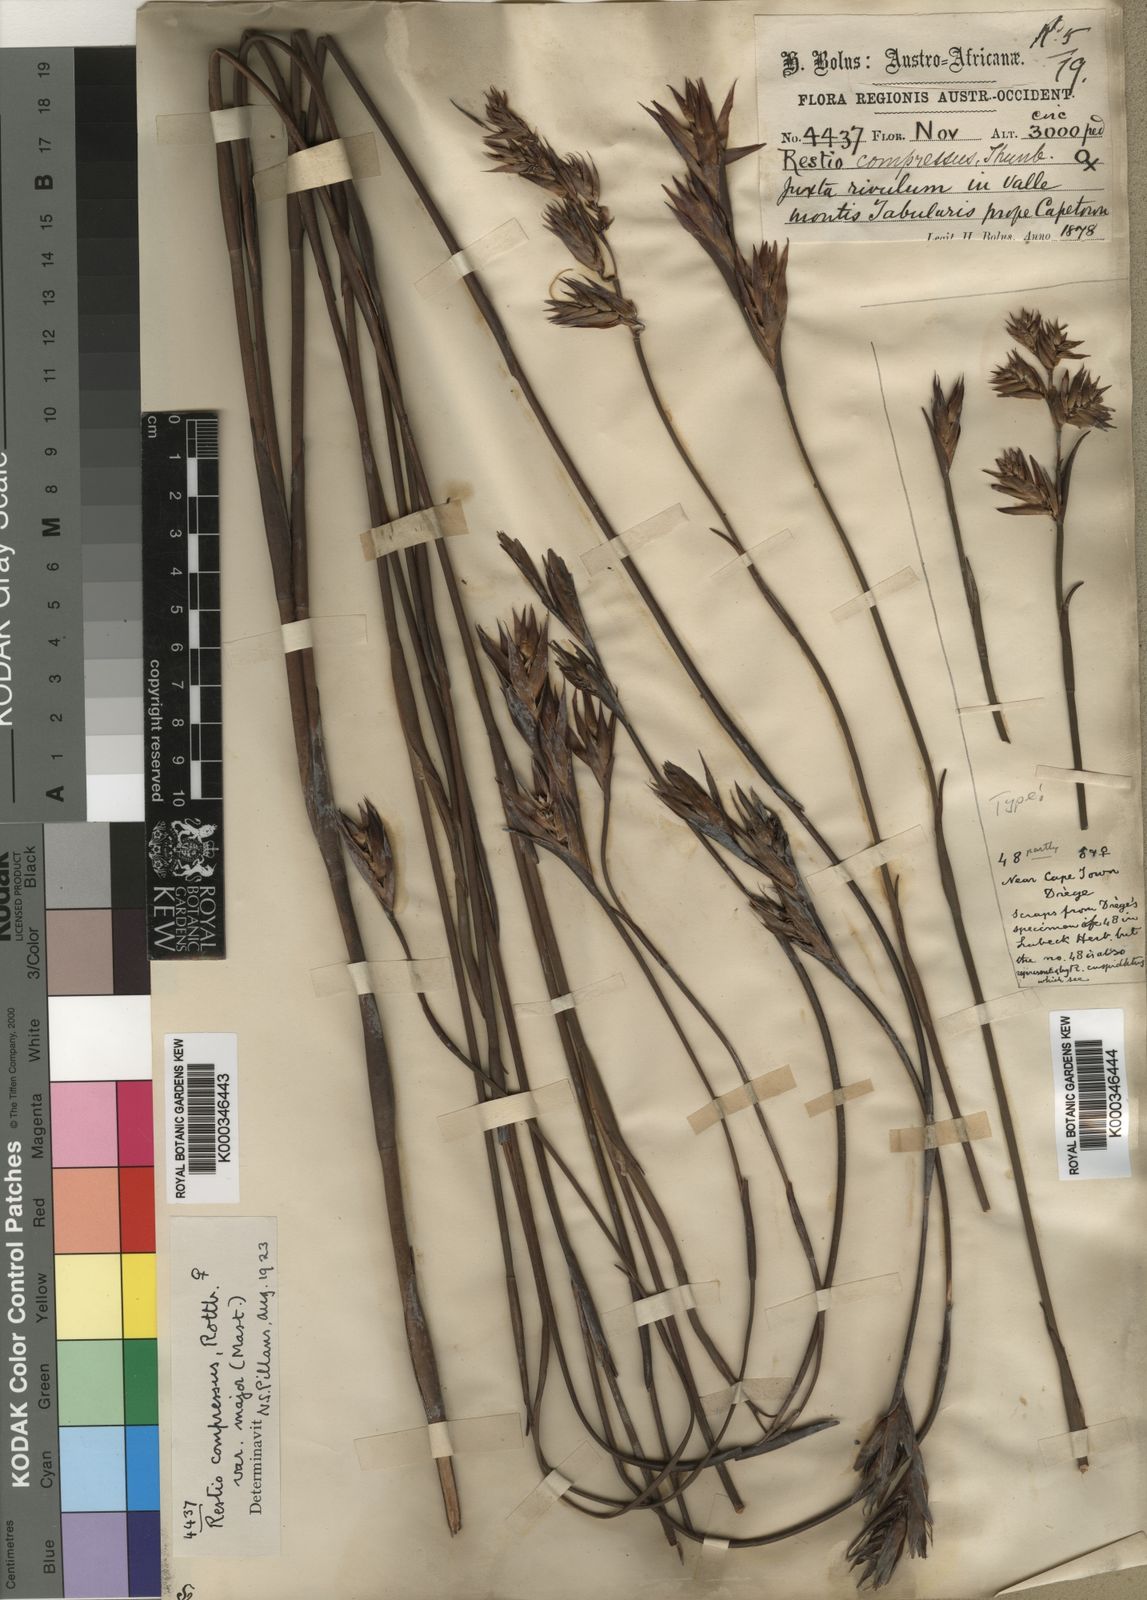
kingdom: Plantae
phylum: Tracheophyta
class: Liliopsida
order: Poales
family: Restionaceae
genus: Platycaulos
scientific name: Platycaulos major
